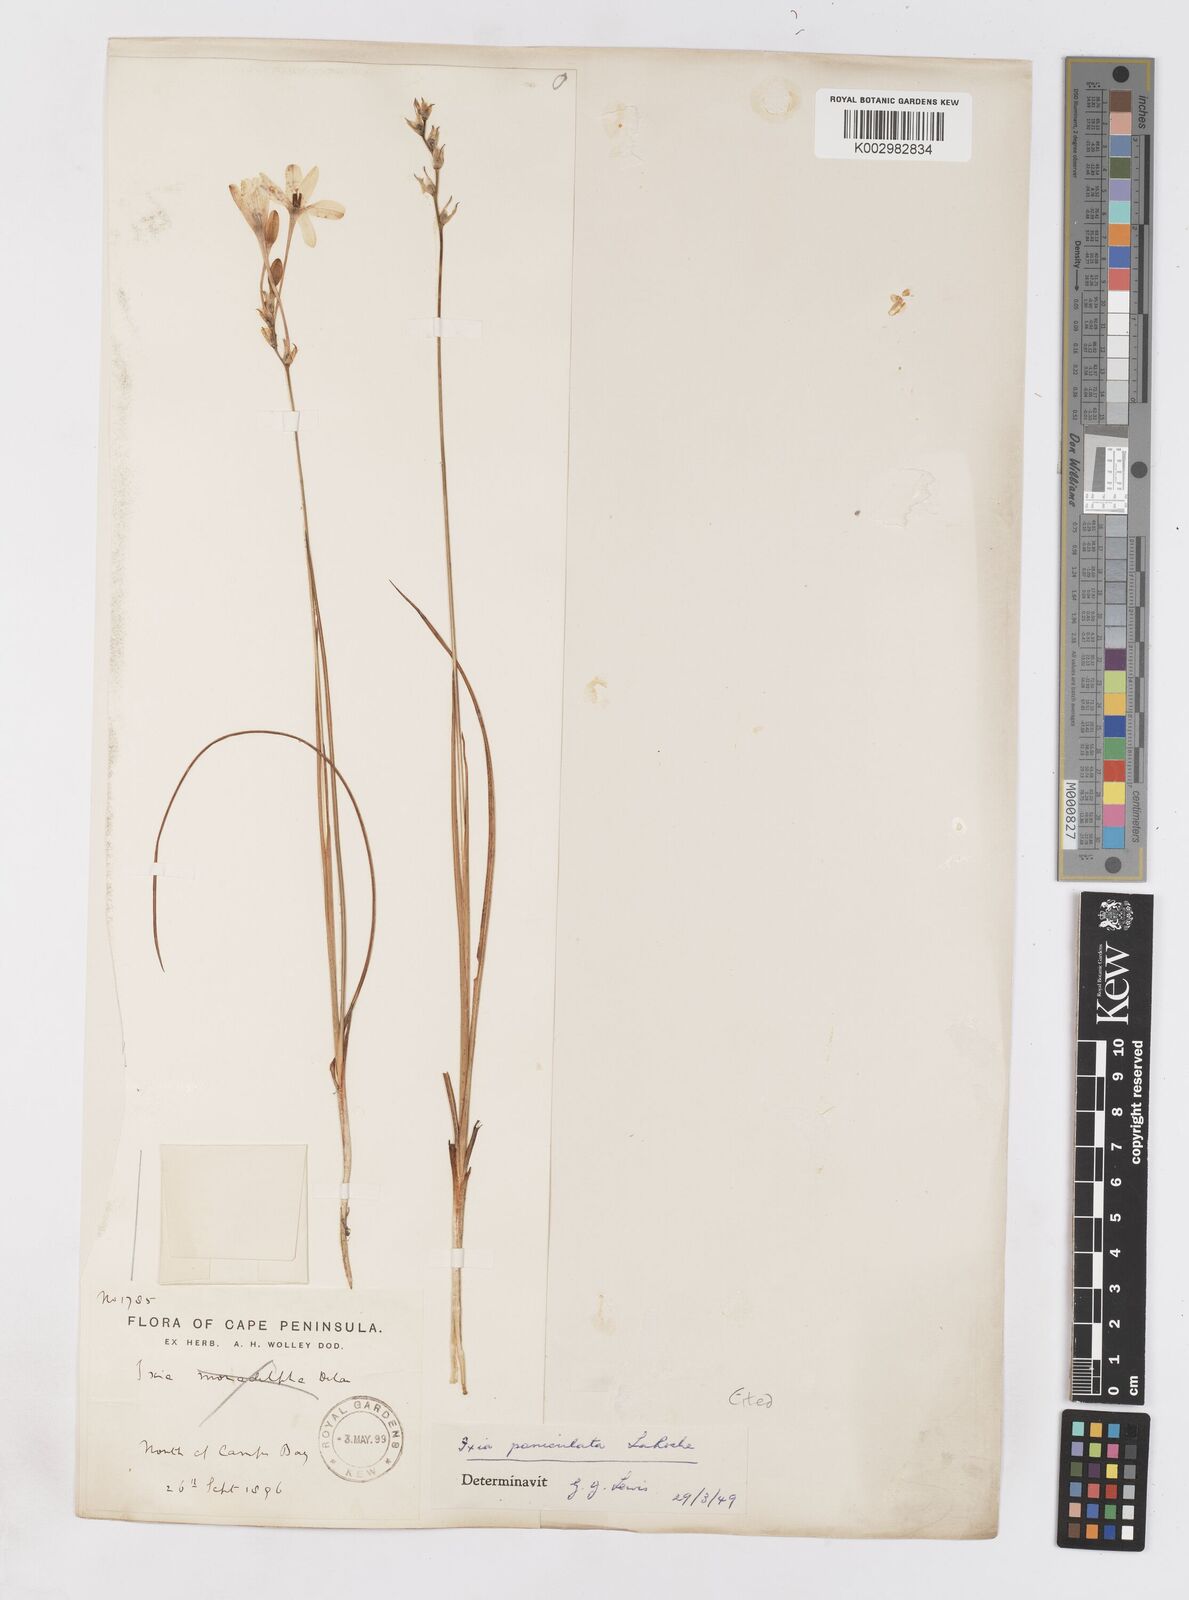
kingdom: Plantae
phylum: Tracheophyta
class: Liliopsida
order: Asparagales
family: Iridaceae
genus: Ixia
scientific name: Ixia paniculata
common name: Tubular corn-lily
